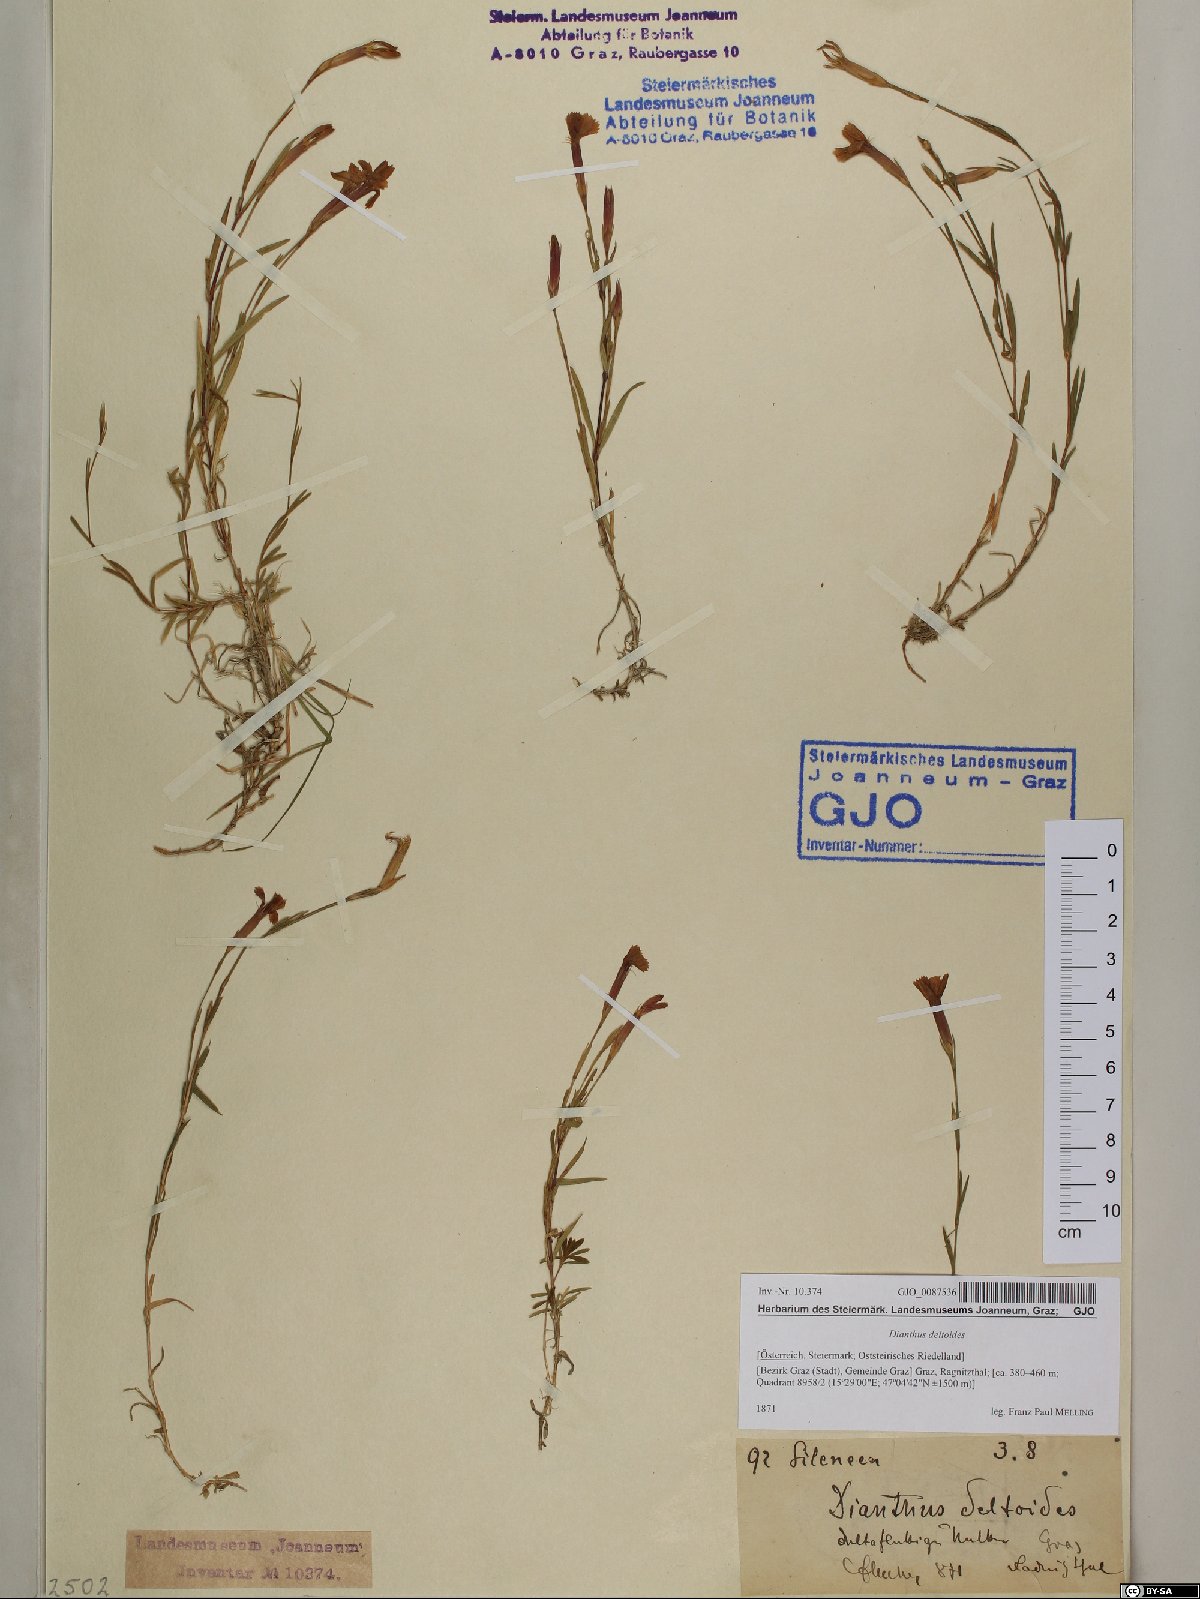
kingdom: Plantae
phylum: Tracheophyta
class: Magnoliopsida
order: Caryophyllales
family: Caryophyllaceae
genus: Dianthus
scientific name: Dianthus deltoides
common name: Maiden pink
